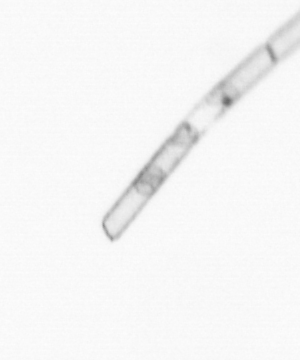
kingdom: Chromista
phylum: Ochrophyta
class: Bacillariophyceae
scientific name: Bacillariophyceae
